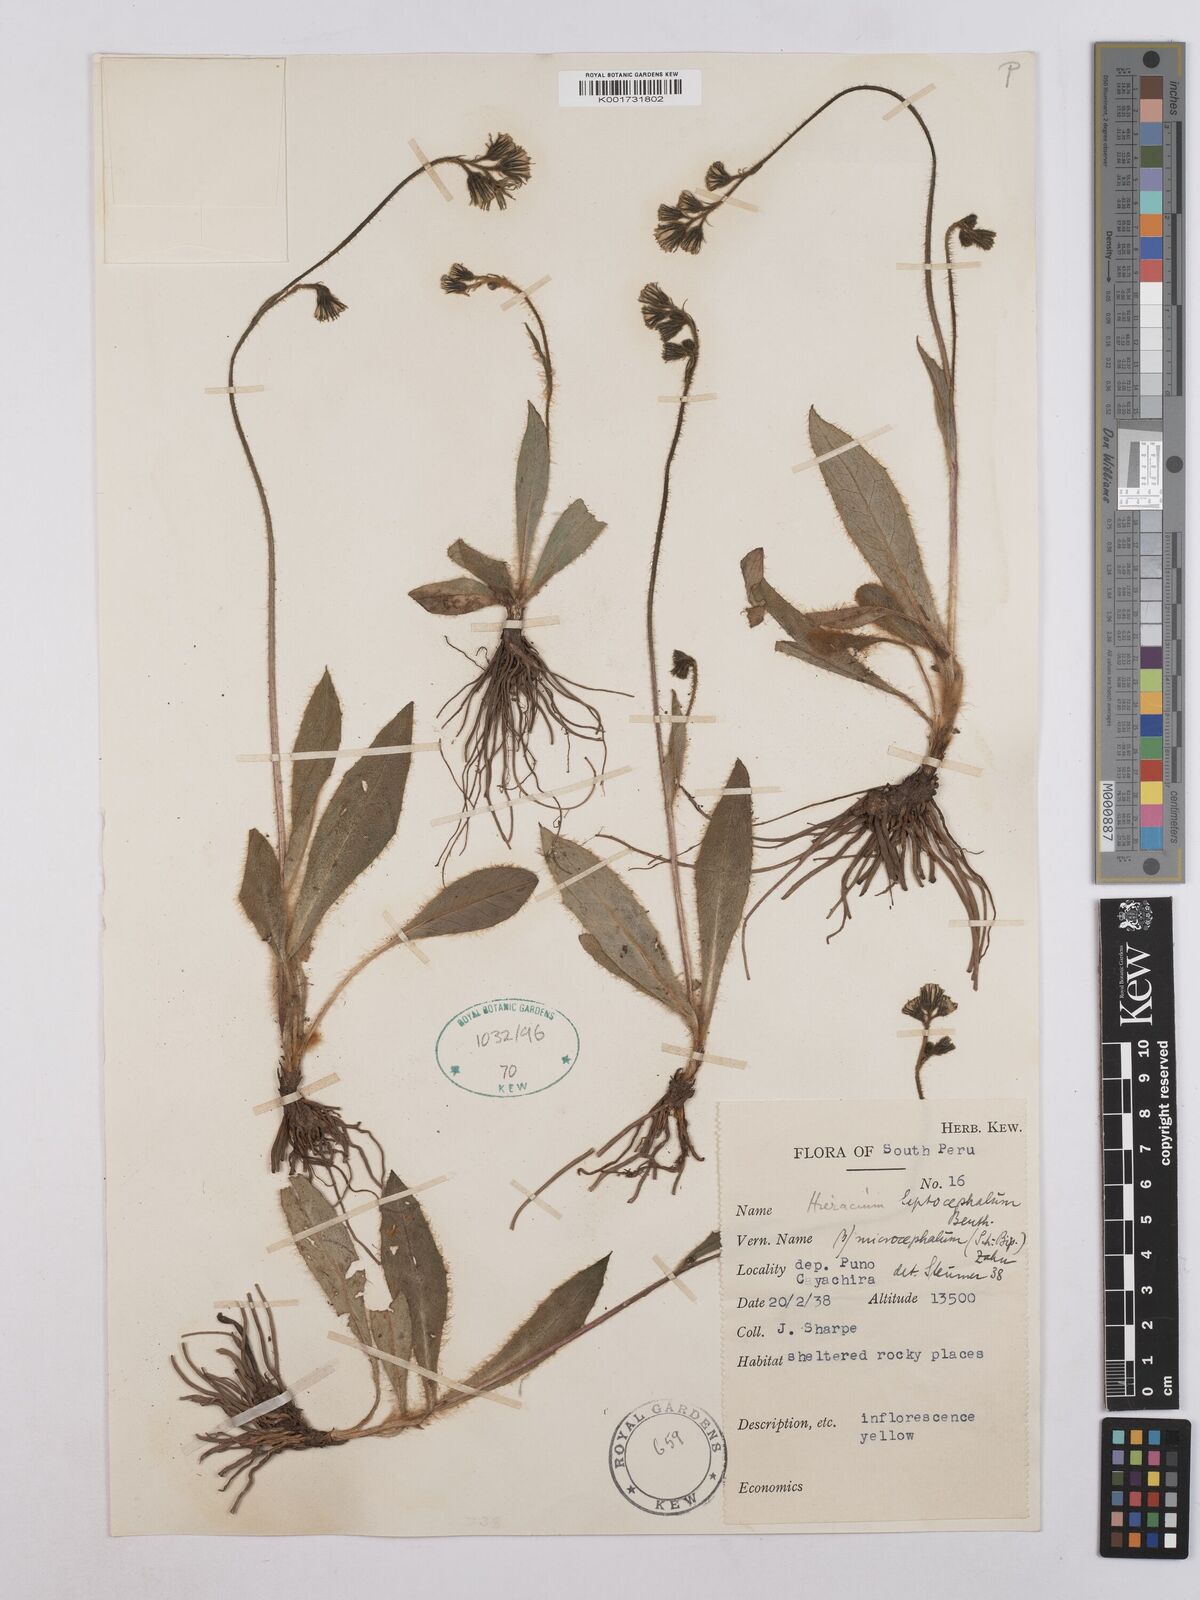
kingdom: Plantae
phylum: Tracheophyta
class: Magnoliopsida
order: Asterales
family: Asteraceae
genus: Hieracium
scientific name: Hieracium microcephalum
